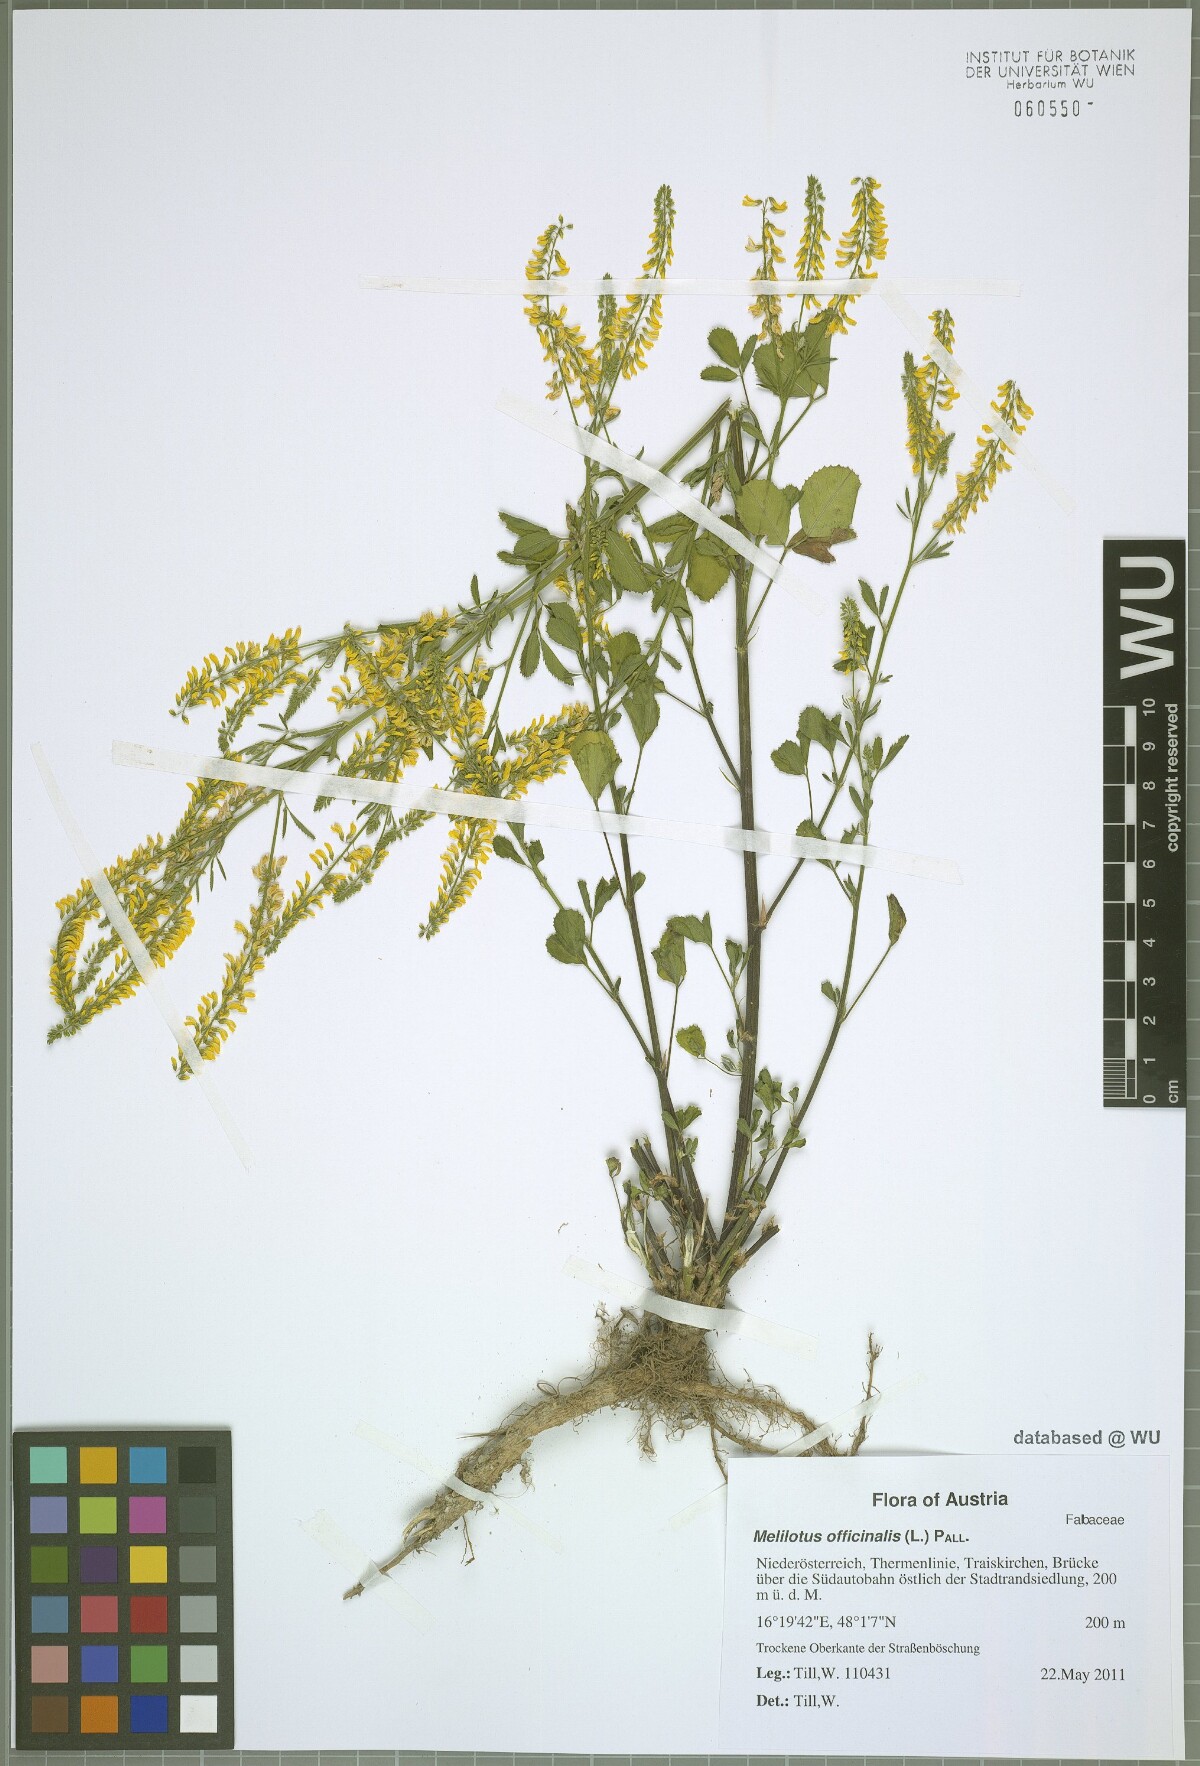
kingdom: Plantae
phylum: Tracheophyta
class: Magnoliopsida
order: Fabales
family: Fabaceae
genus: Melilotus
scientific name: Melilotus officinalis
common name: Sweetclover
